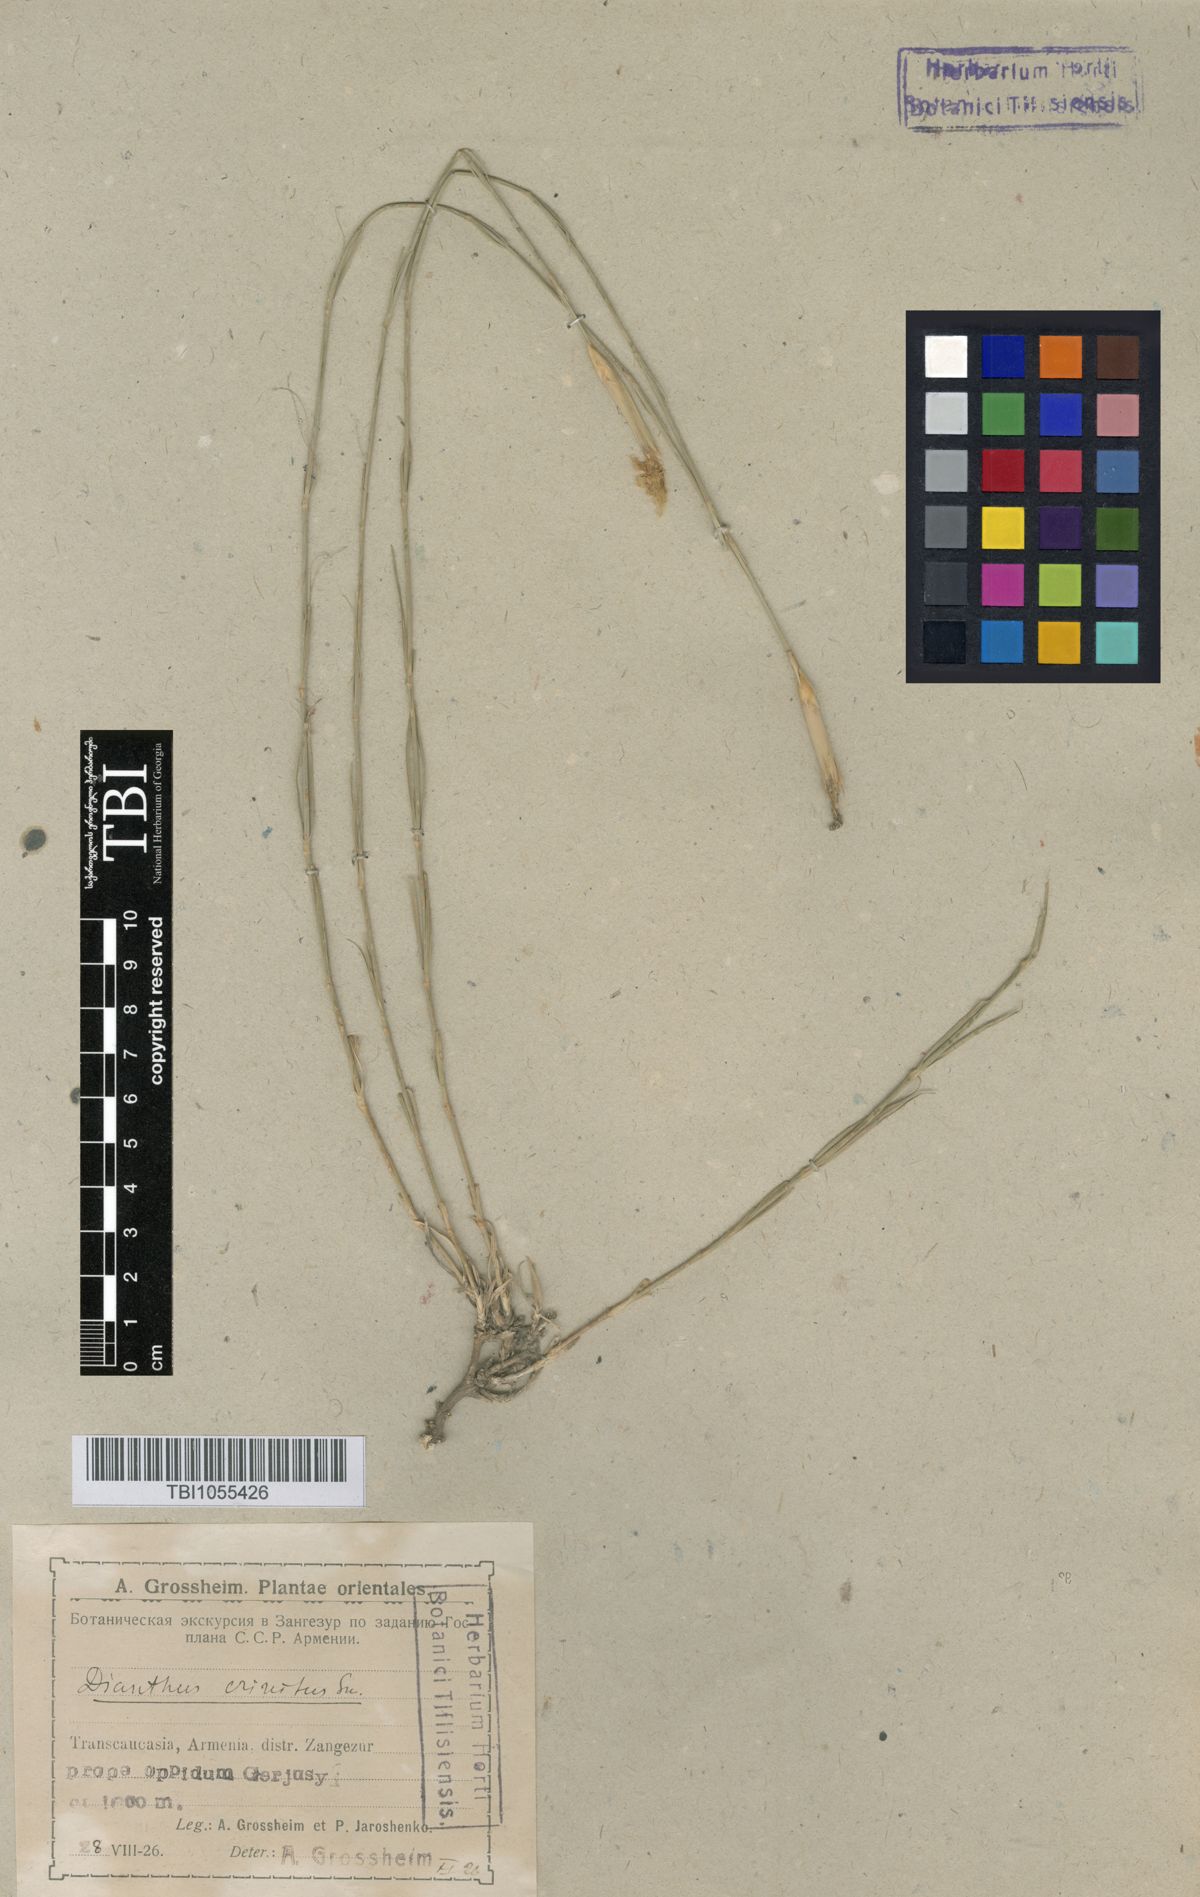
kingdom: Plantae
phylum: Tracheophyta
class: Magnoliopsida
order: Caryophyllales
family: Caryophyllaceae
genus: Dianthus
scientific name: Dianthus crinitus
